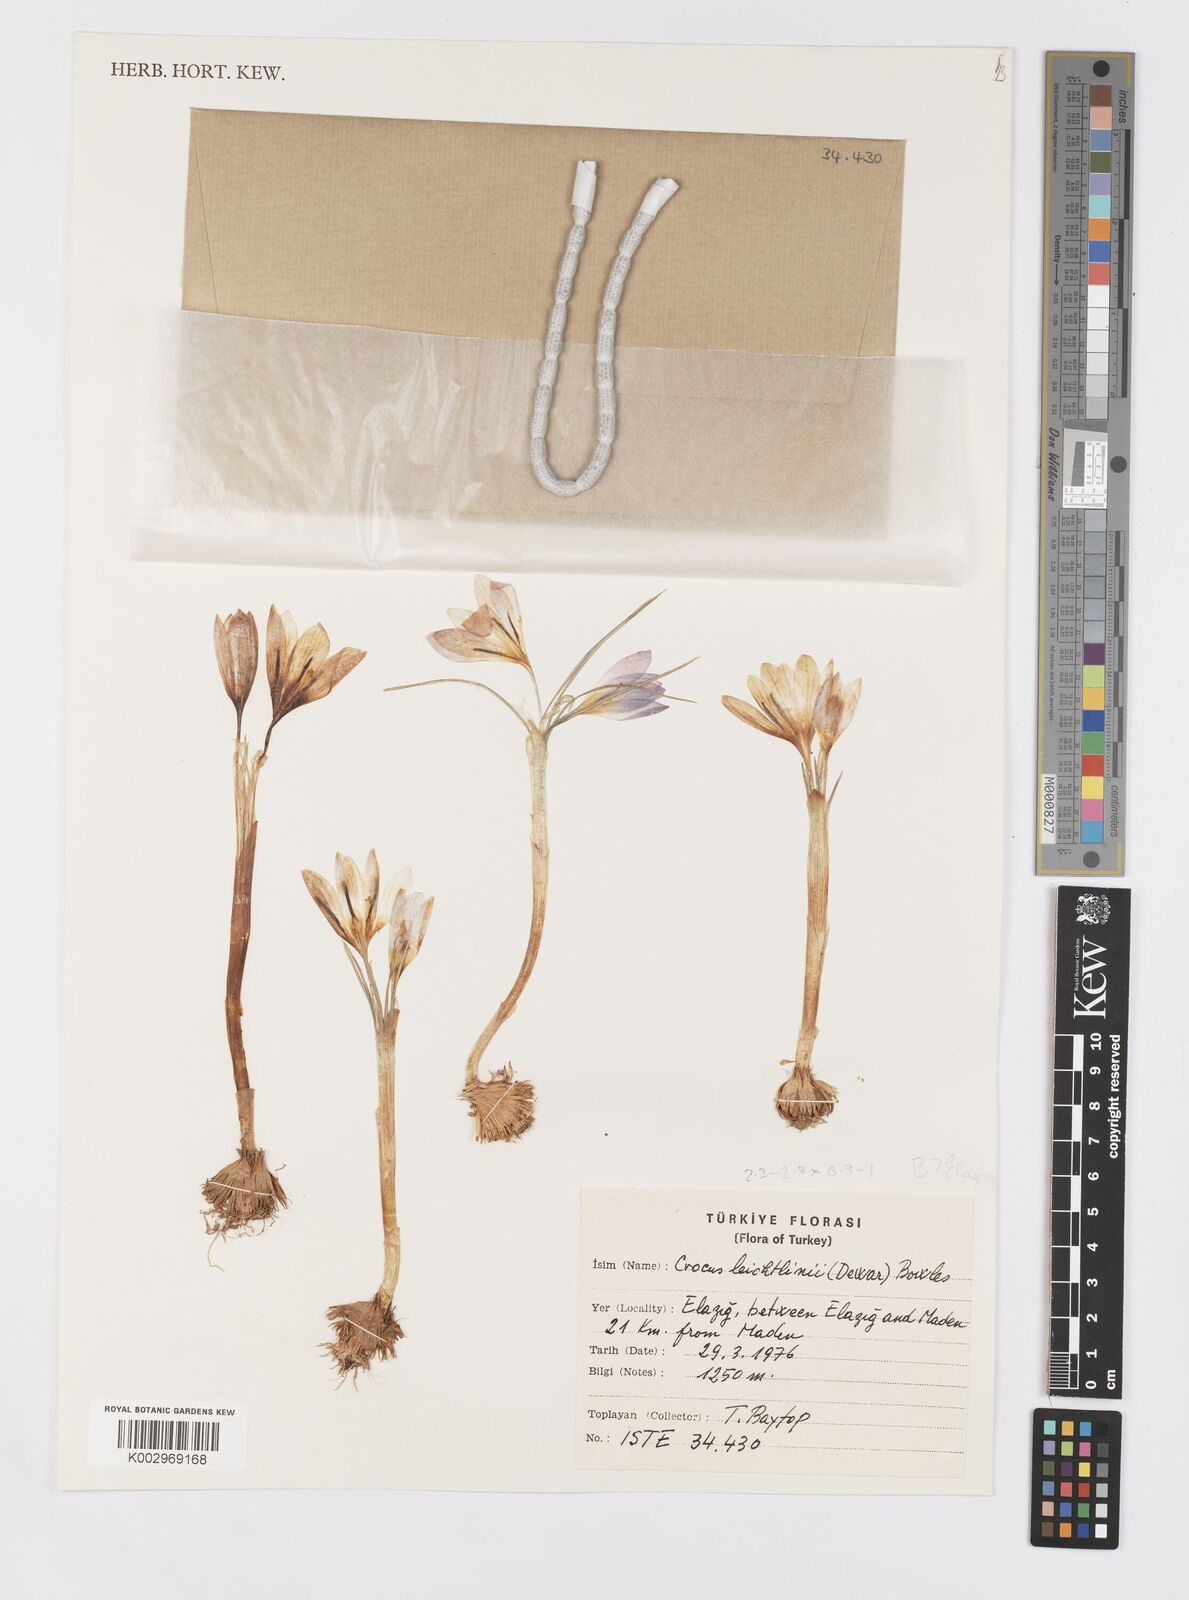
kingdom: Plantae
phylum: Tracheophyta
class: Liliopsida
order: Asparagales
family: Iridaceae
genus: Crocus
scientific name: Crocus leichtlinii
